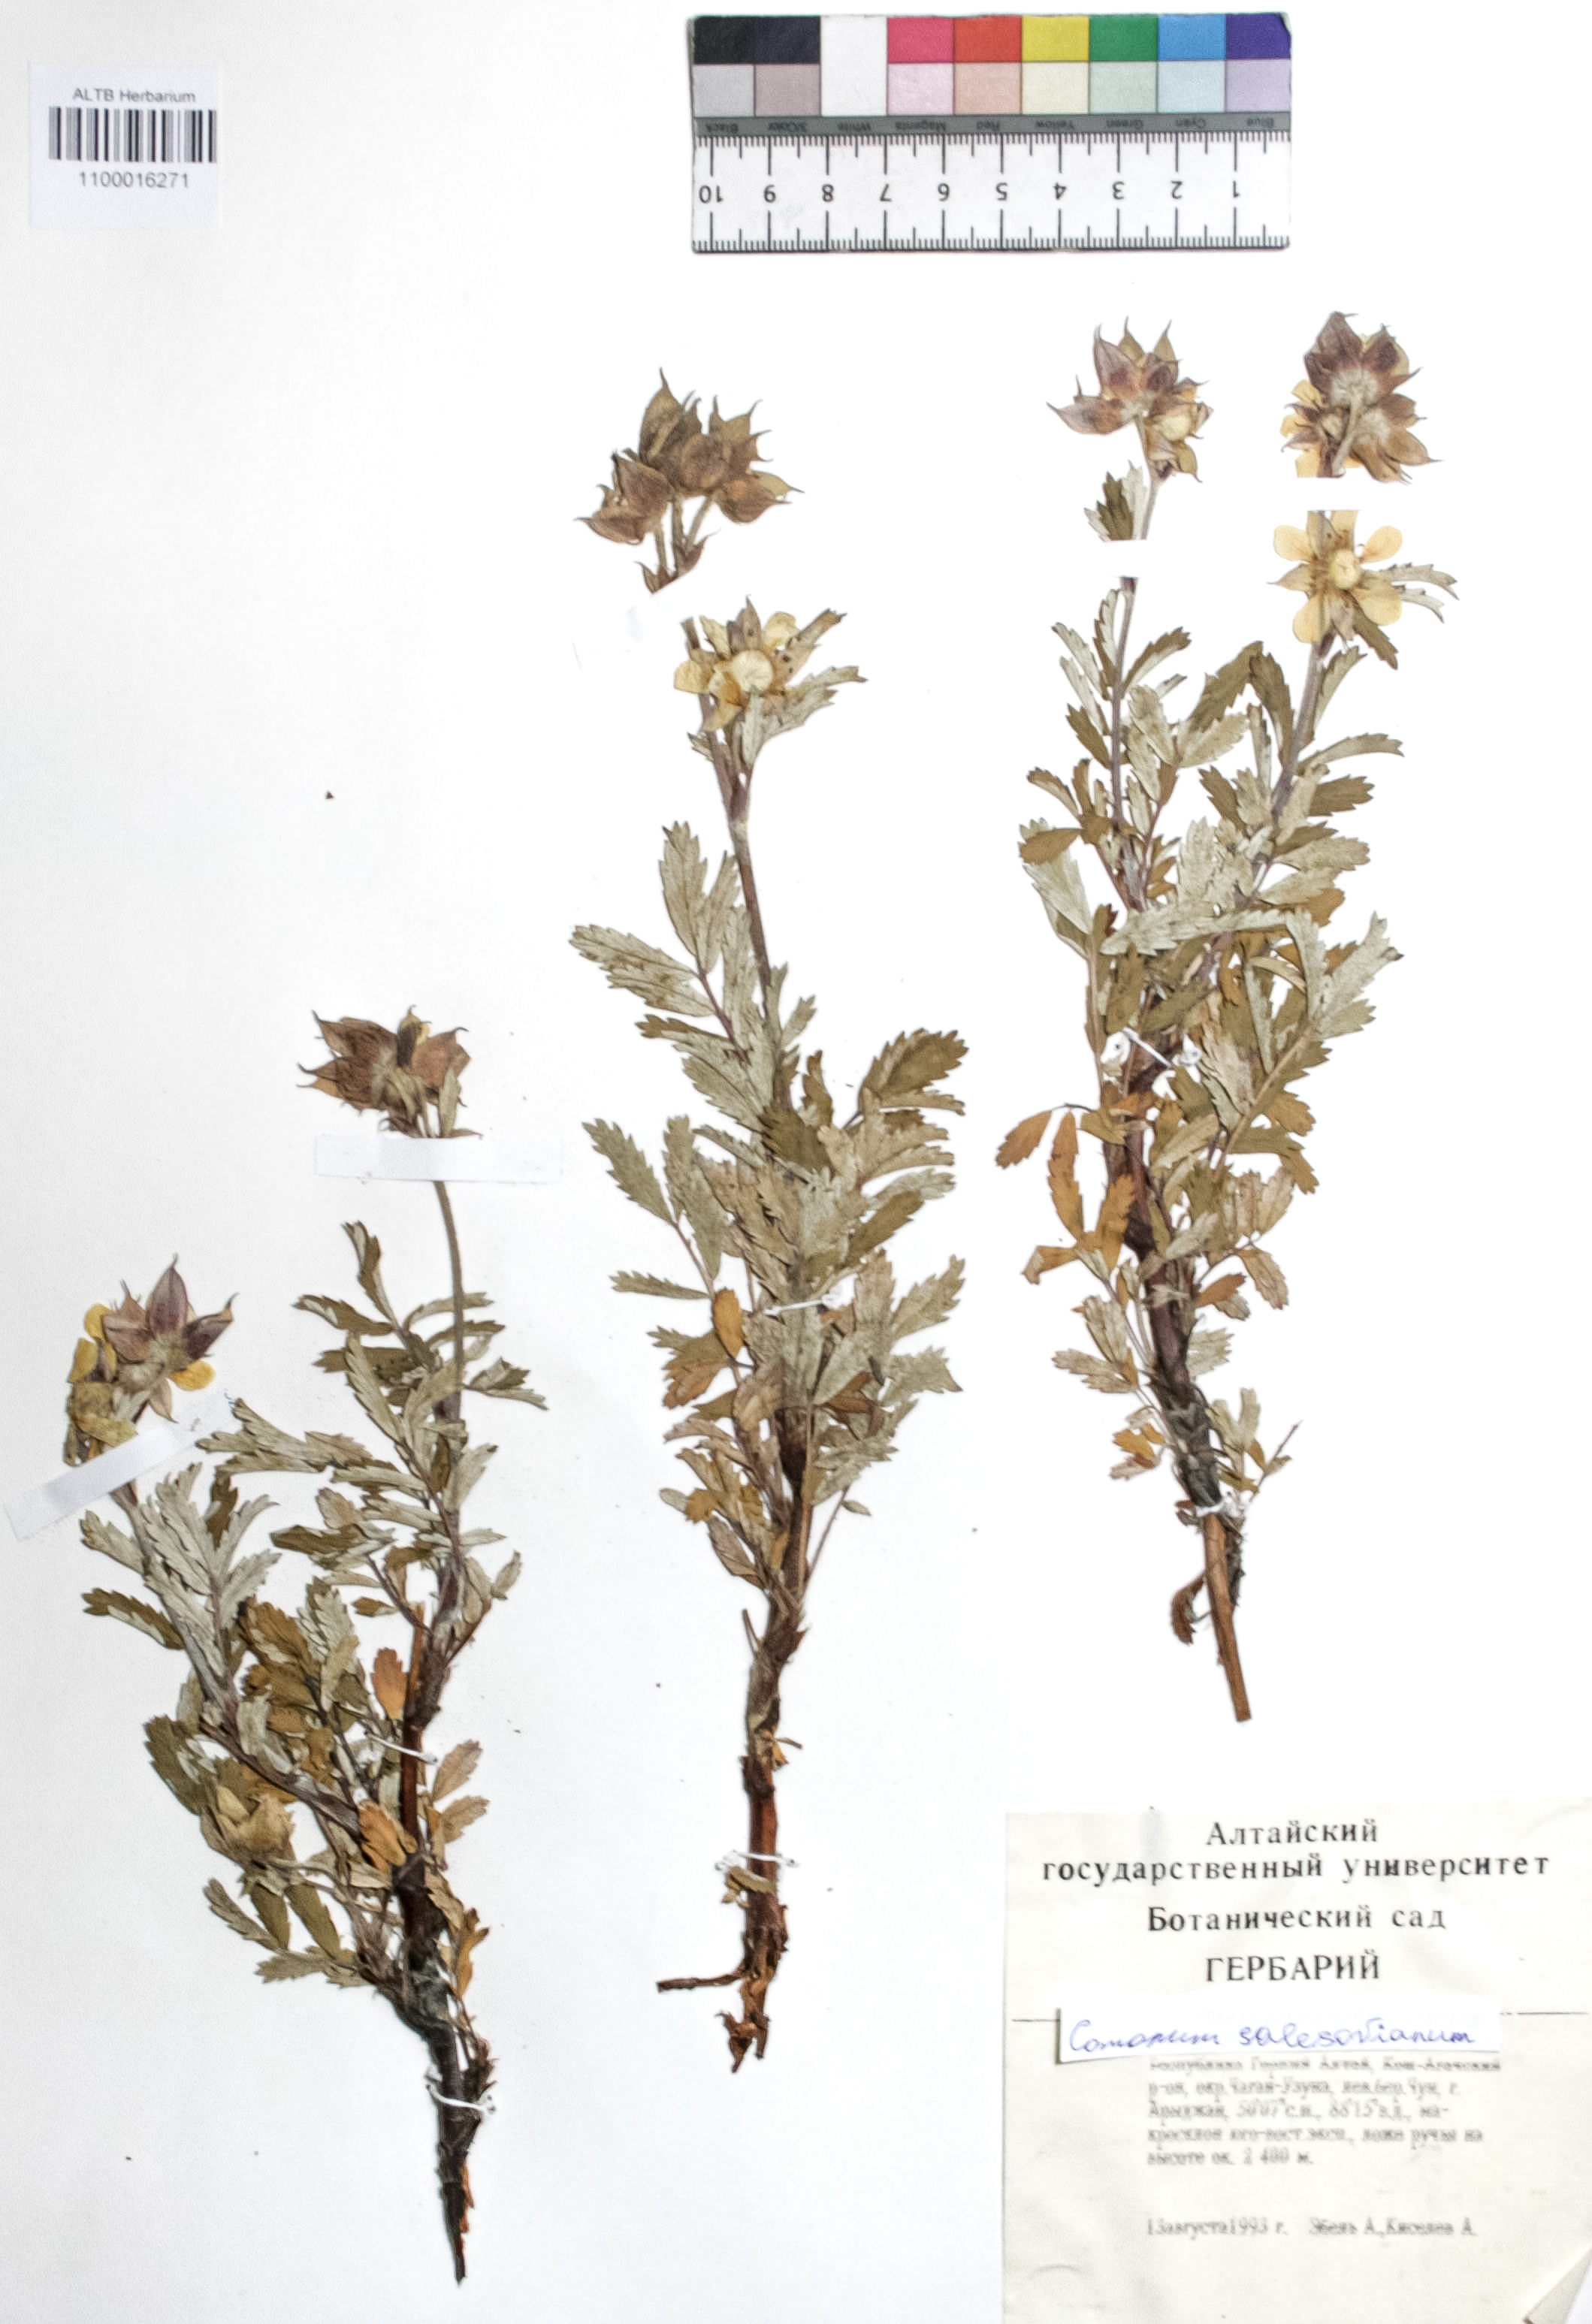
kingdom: Plantae
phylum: Tracheophyta
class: Magnoliopsida
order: Rosales
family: Rosaceae
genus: Farinopsis
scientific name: Farinopsis salesoviana
